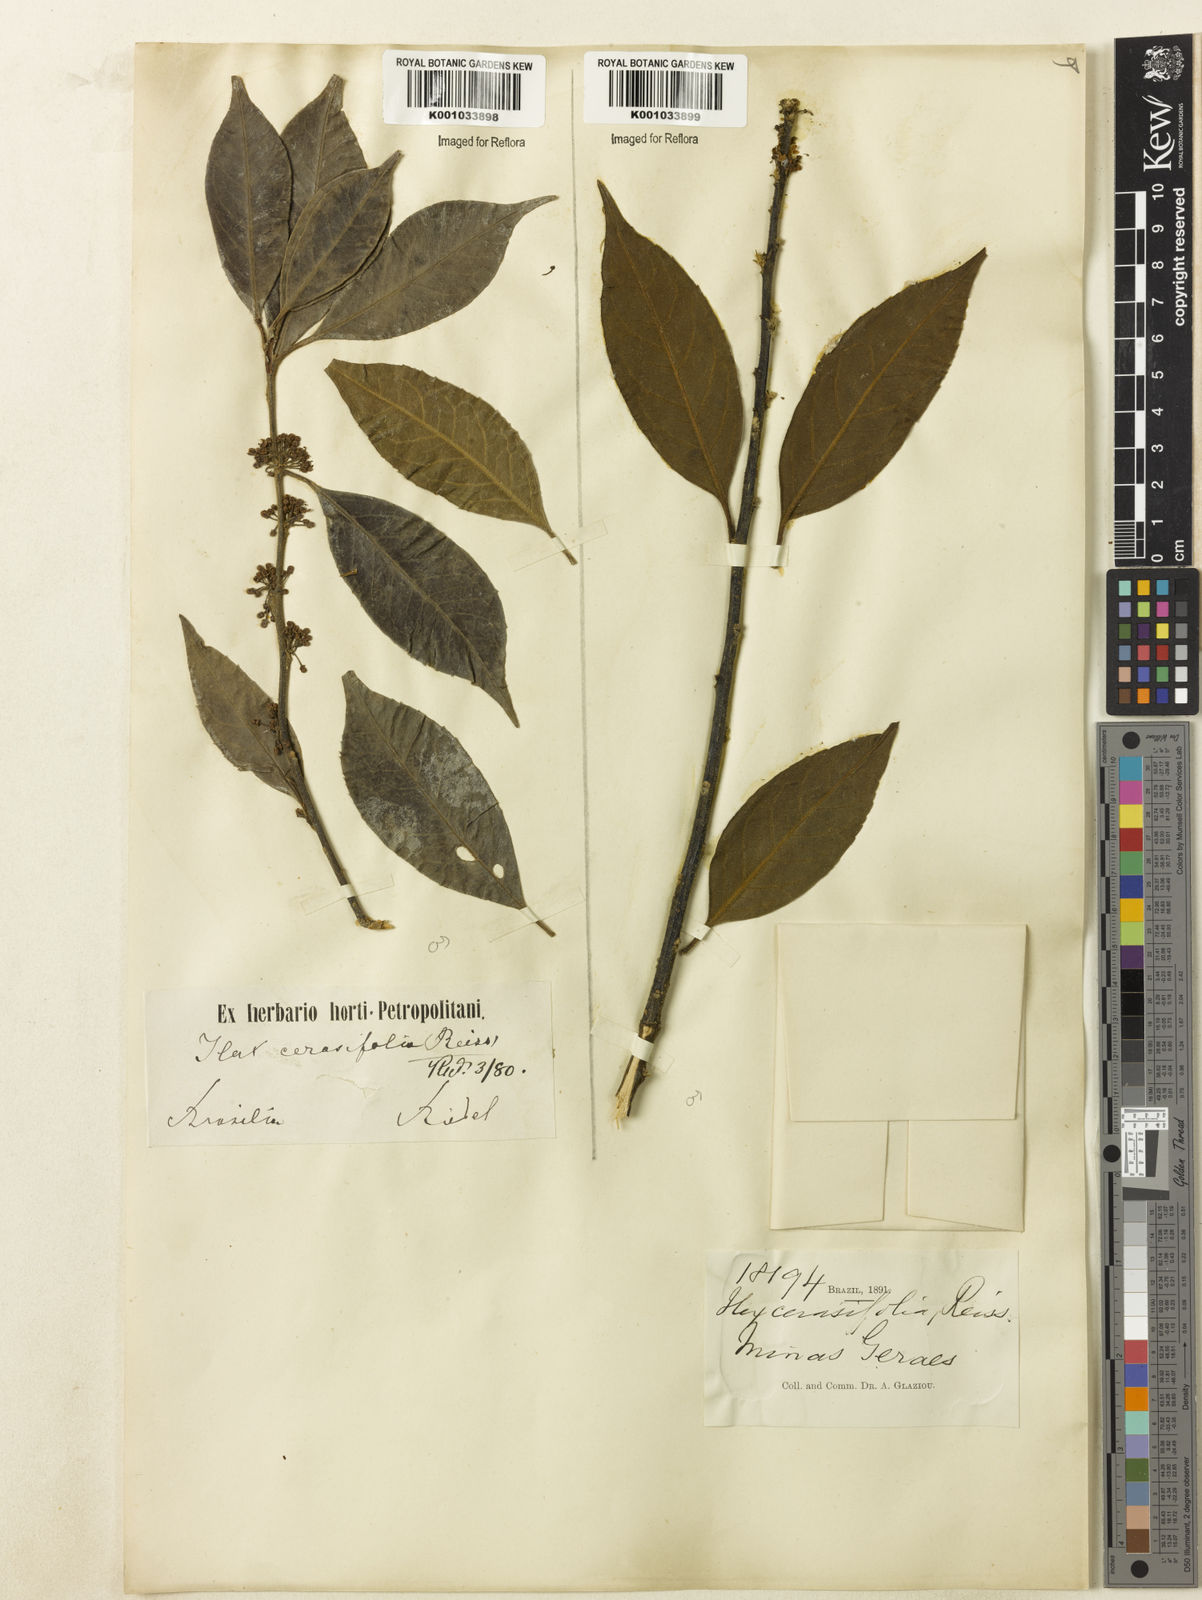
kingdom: Plantae
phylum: Tracheophyta
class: Magnoliopsida
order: Aquifoliales
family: Aquifoliaceae
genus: Ilex
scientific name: Ilex cerasifolia
